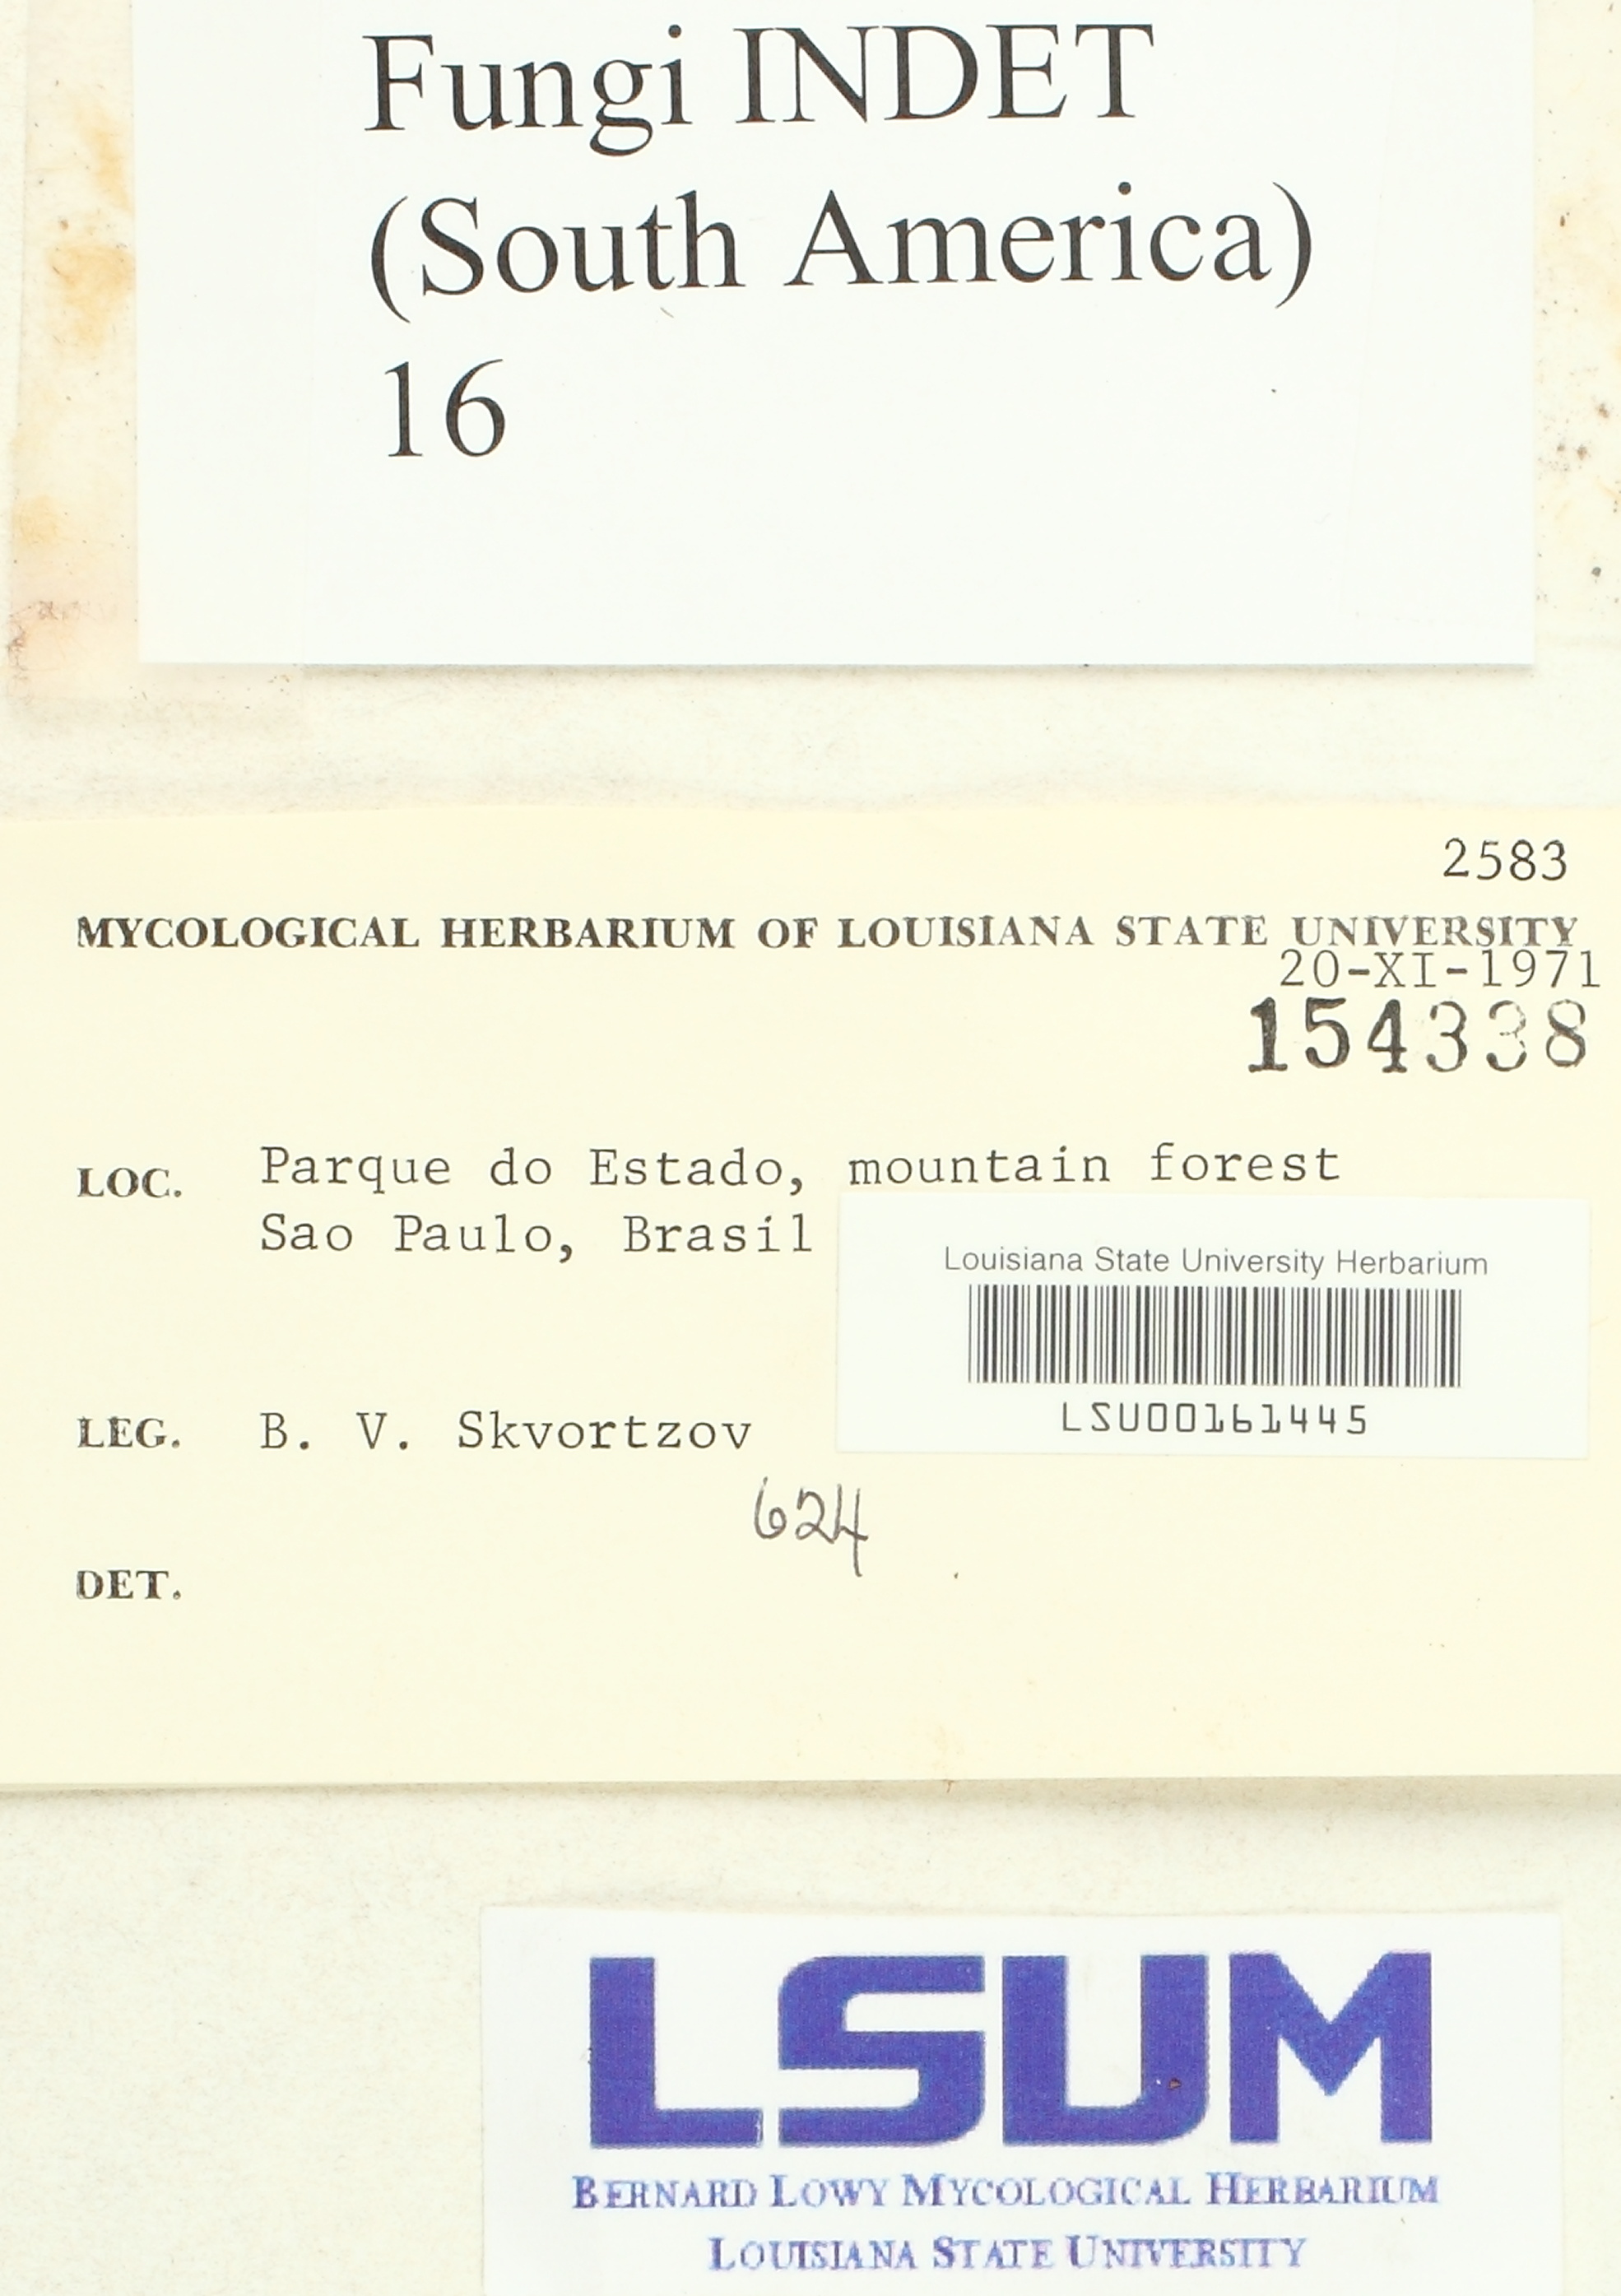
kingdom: Fungi
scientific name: Fungi
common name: Fungi
